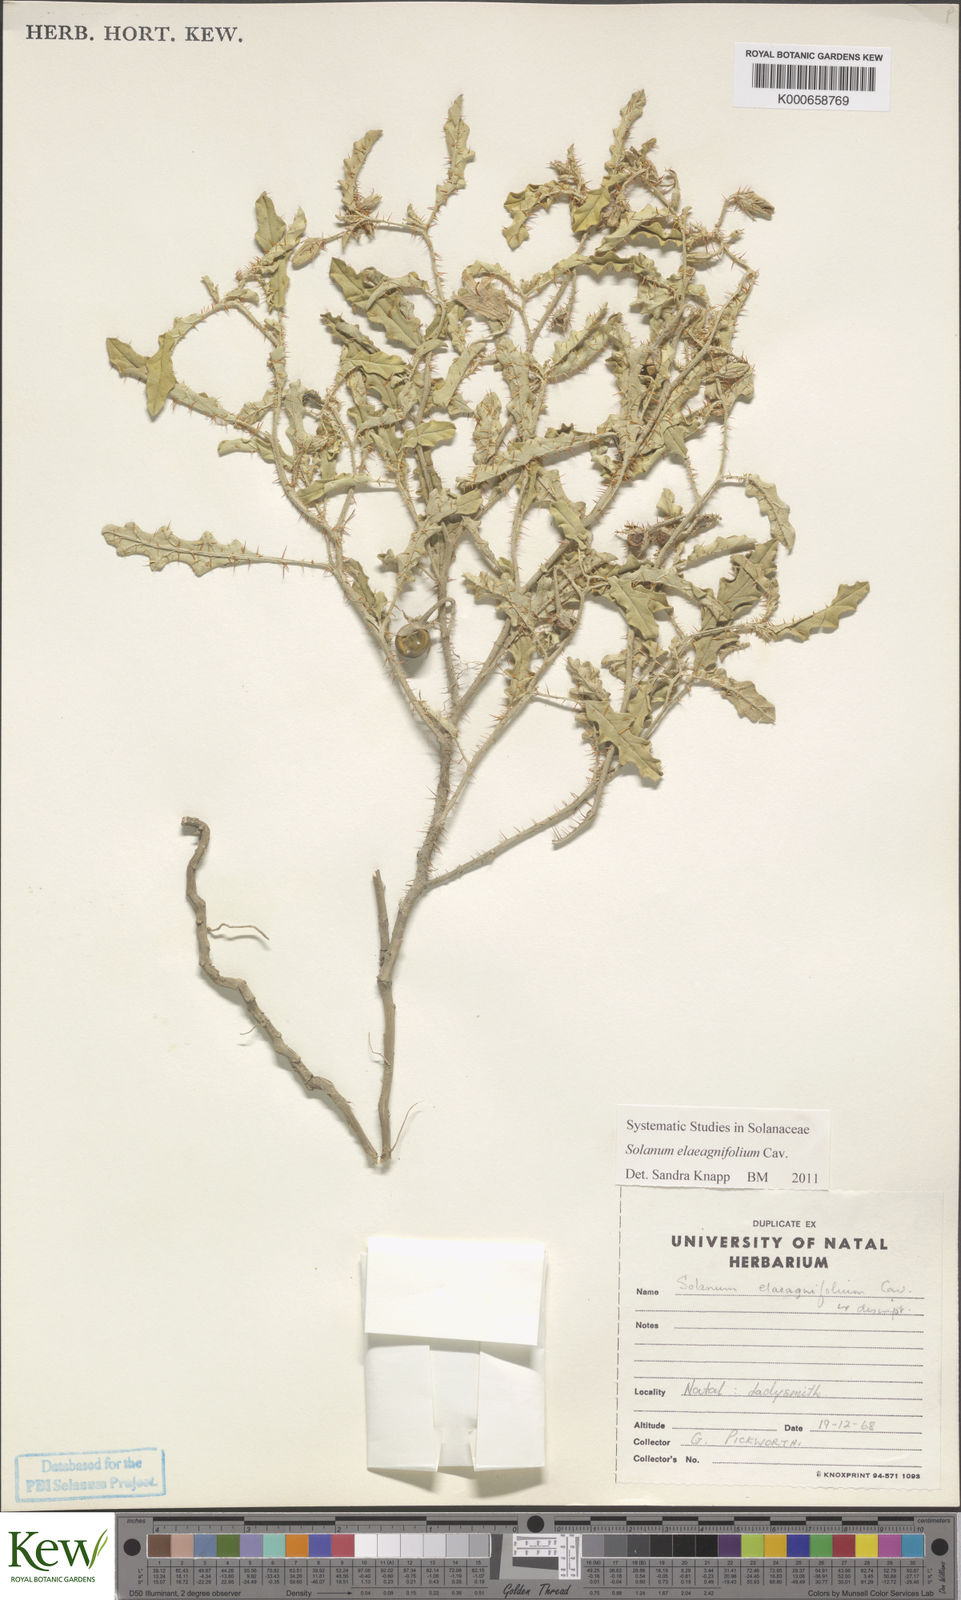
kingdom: Plantae
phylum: Tracheophyta
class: Magnoliopsida
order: Solanales
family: Solanaceae
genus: Solanum
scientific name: Solanum elaeagnifolium
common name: Silverleaf nightshade
